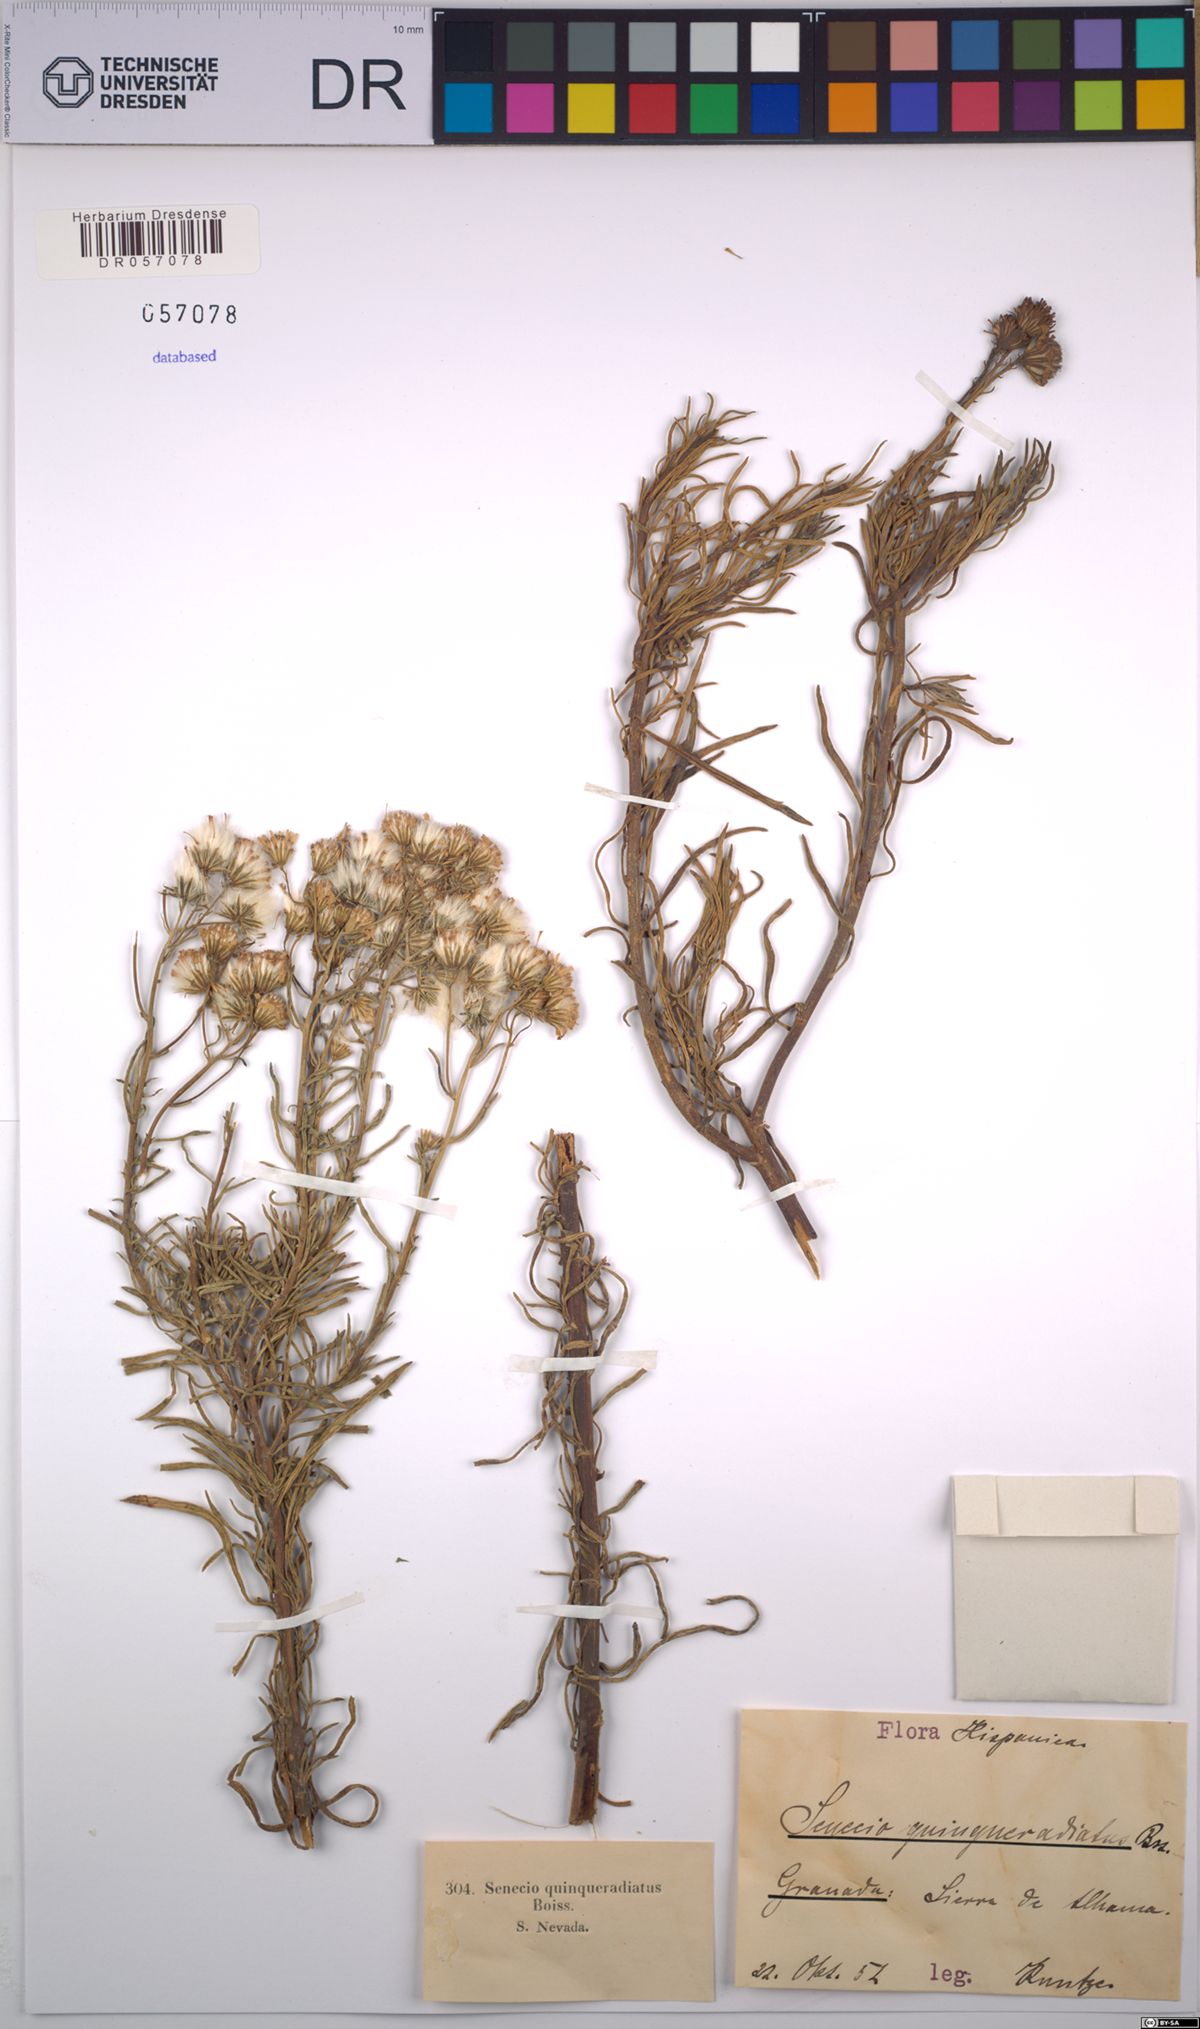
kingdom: Plantae
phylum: Tracheophyta
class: Magnoliopsida
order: Asterales
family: Asteraceae
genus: Senecio
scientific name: Senecio quinqueradiatus
